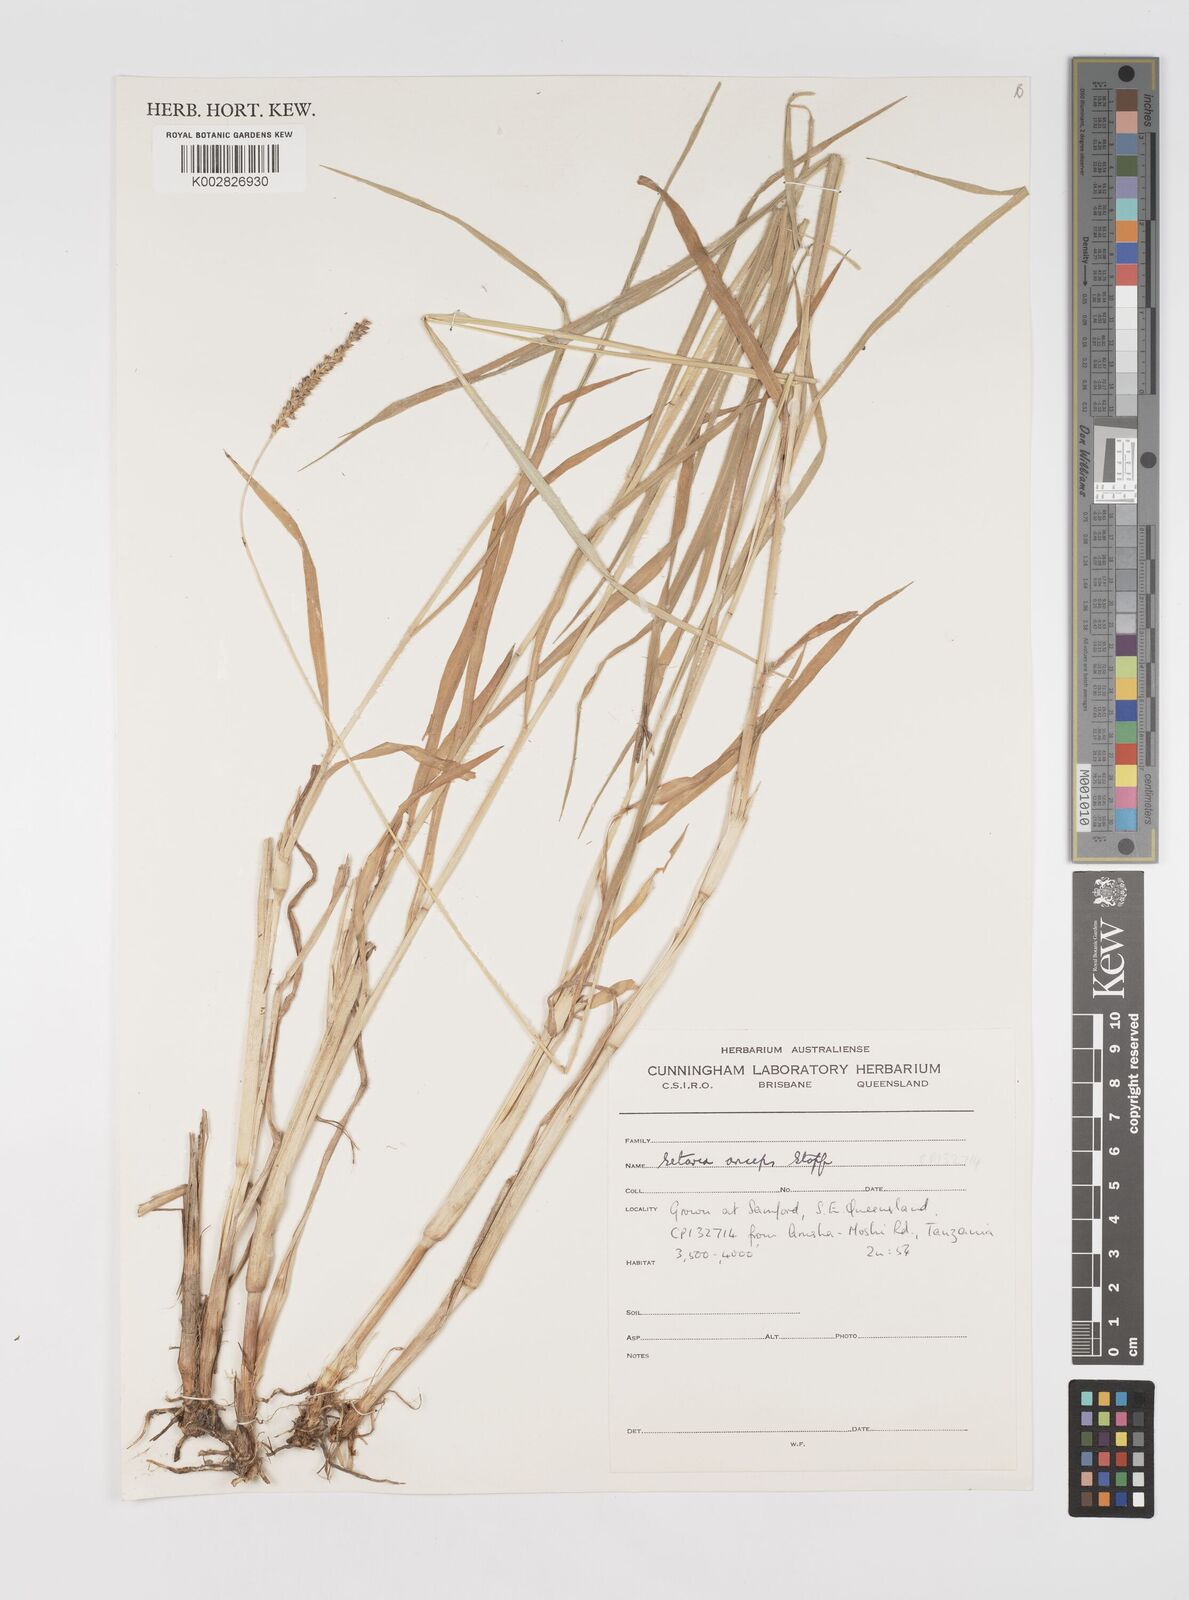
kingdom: Plantae
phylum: Tracheophyta
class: Liliopsida
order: Poales
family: Poaceae
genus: Setaria
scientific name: Setaria sphacelata
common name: African bristlegrass
